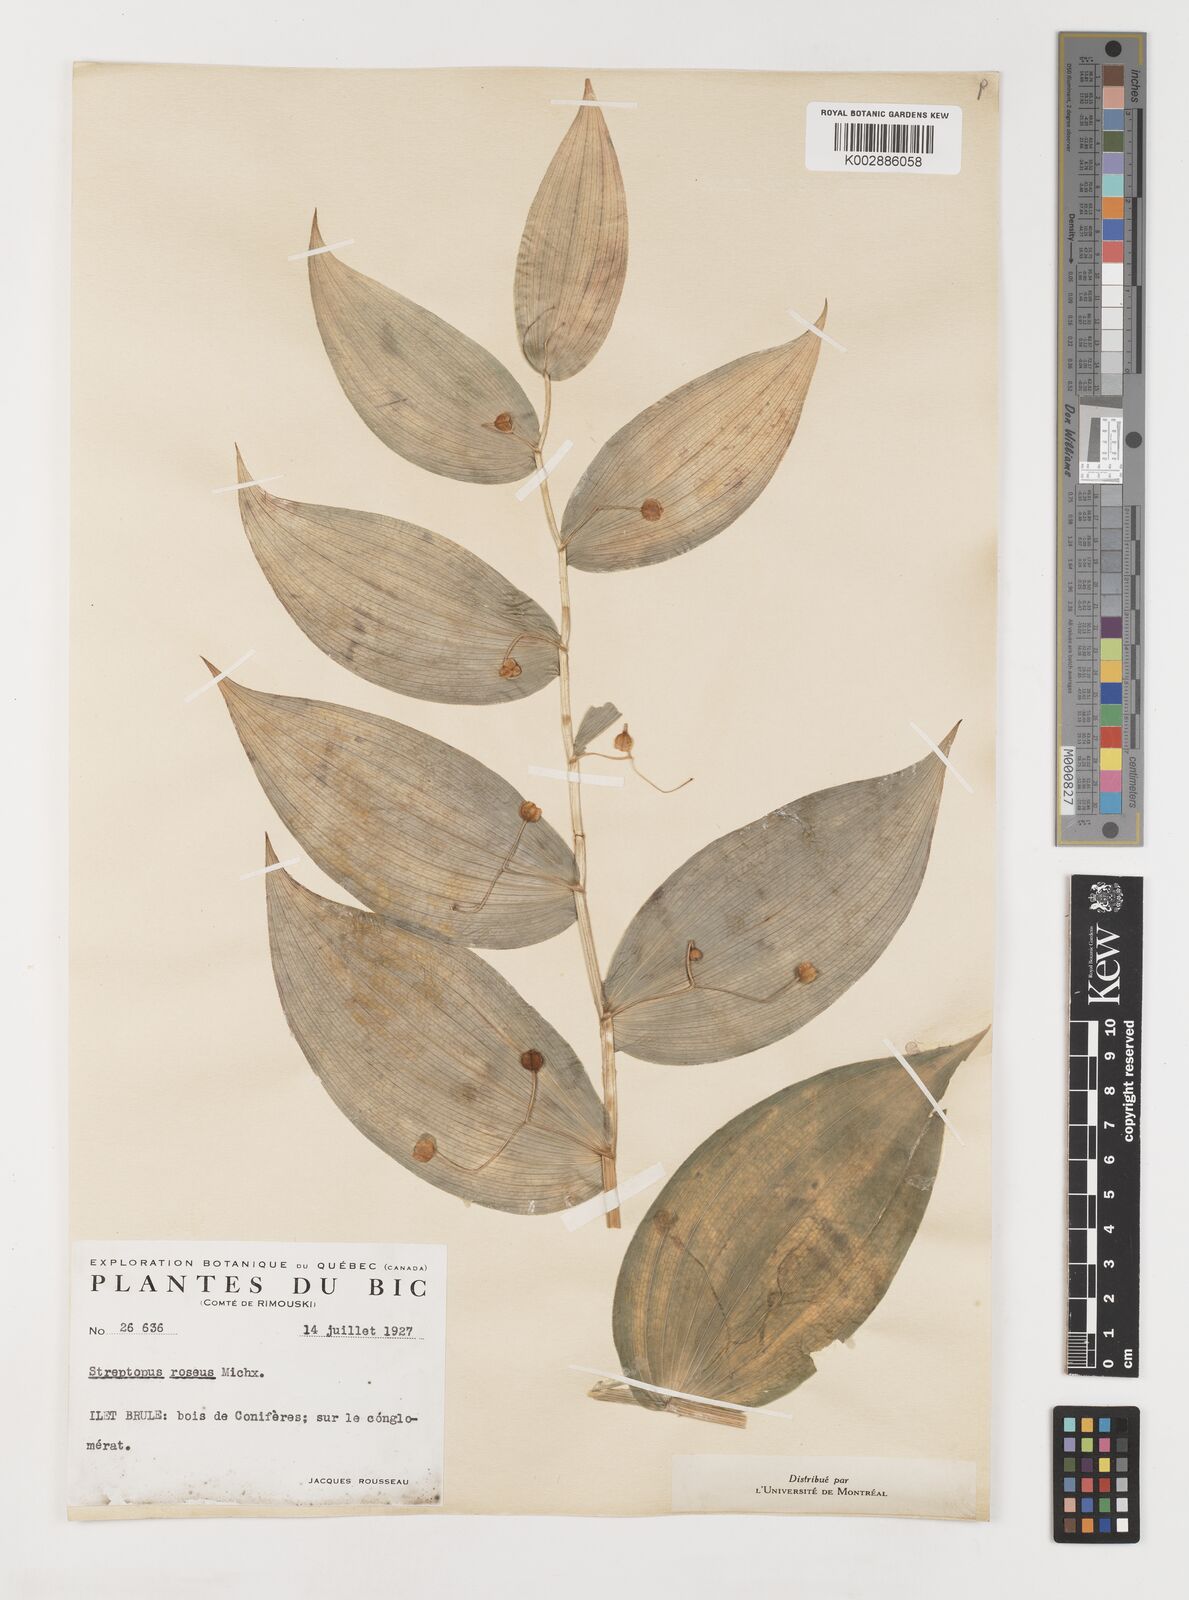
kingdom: Plantae
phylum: Tracheophyta
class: Liliopsida
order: Liliales
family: Liliaceae
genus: Streptopus
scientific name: Streptopus lanceolatus
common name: Rose mandarin
